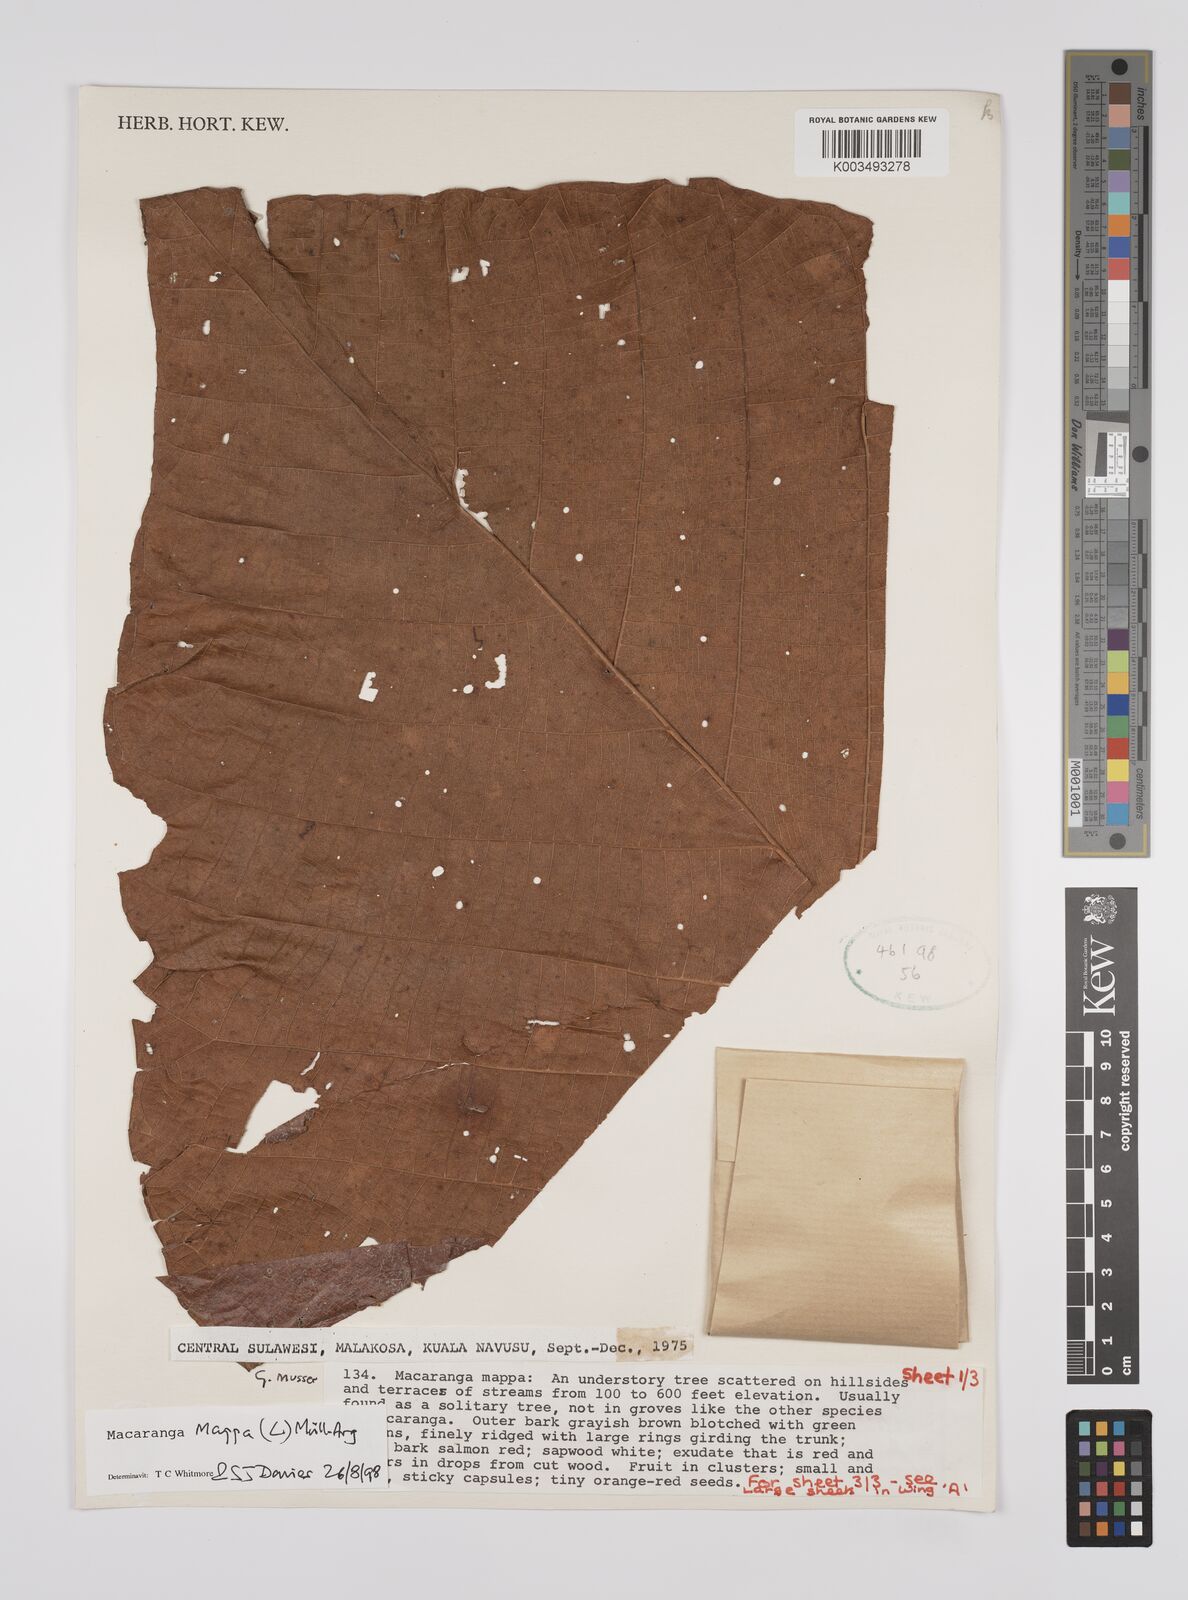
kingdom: Plantae
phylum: Tracheophyta
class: Magnoliopsida
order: Malpighiales
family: Euphorbiaceae
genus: Macaranga
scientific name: Macaranga mappa
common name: Pengua
